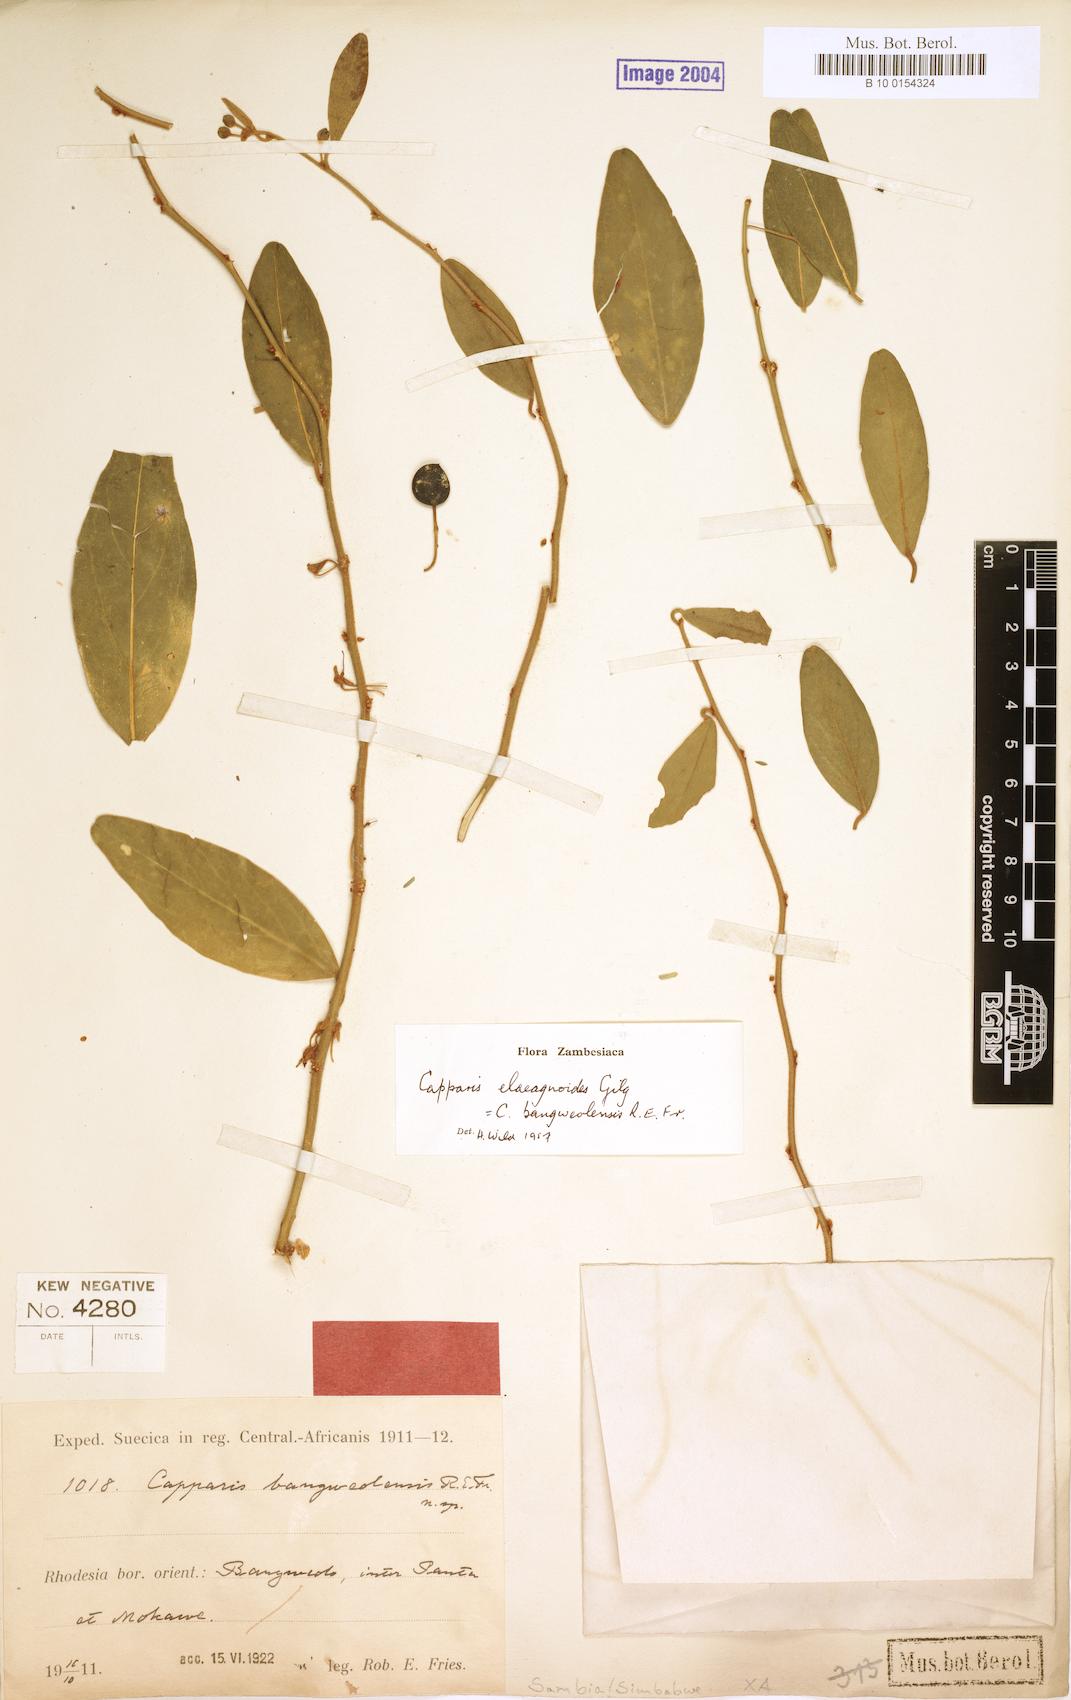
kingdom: Plantae
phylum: Tracheophyta
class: Magnoliopsida
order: Brassicales
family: Capparaceae
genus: Capparis
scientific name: Capparis fascicularis
